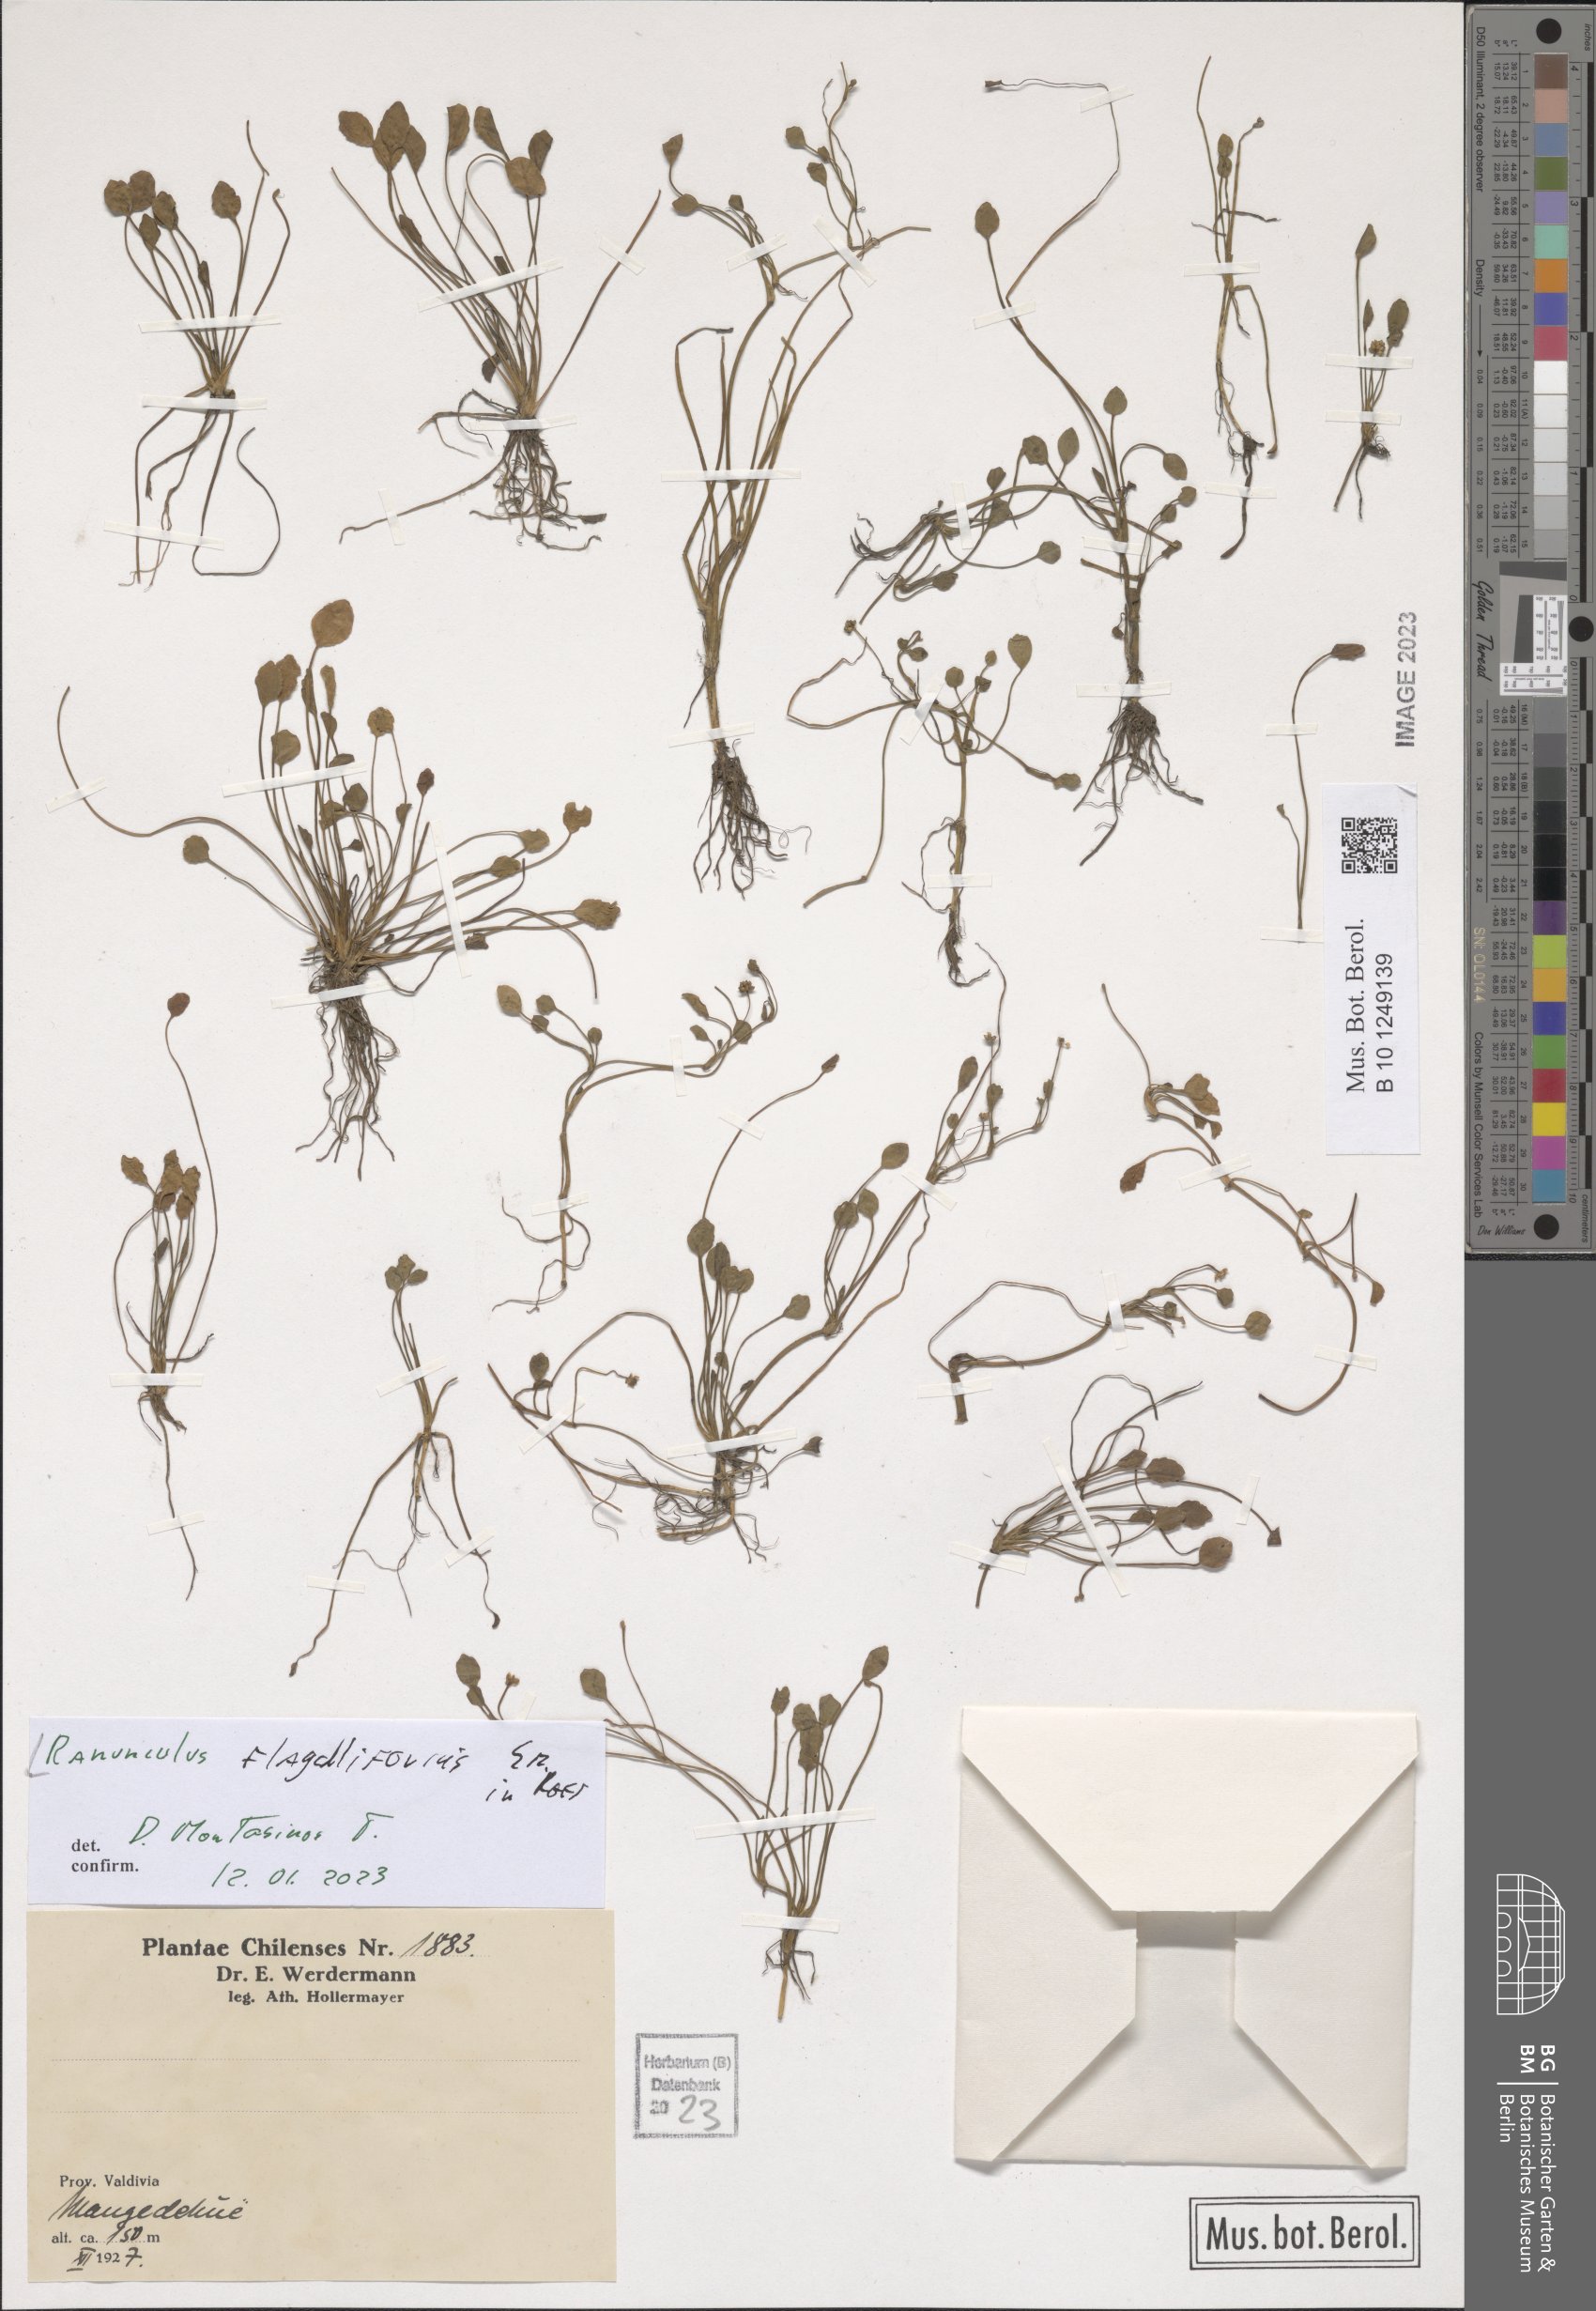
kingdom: Plantae
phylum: Tracheophyta
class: Magnoliopsida
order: Ranunculales
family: Ranunculaceae
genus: Ranunculus
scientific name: Ranunculus flagelliformis
